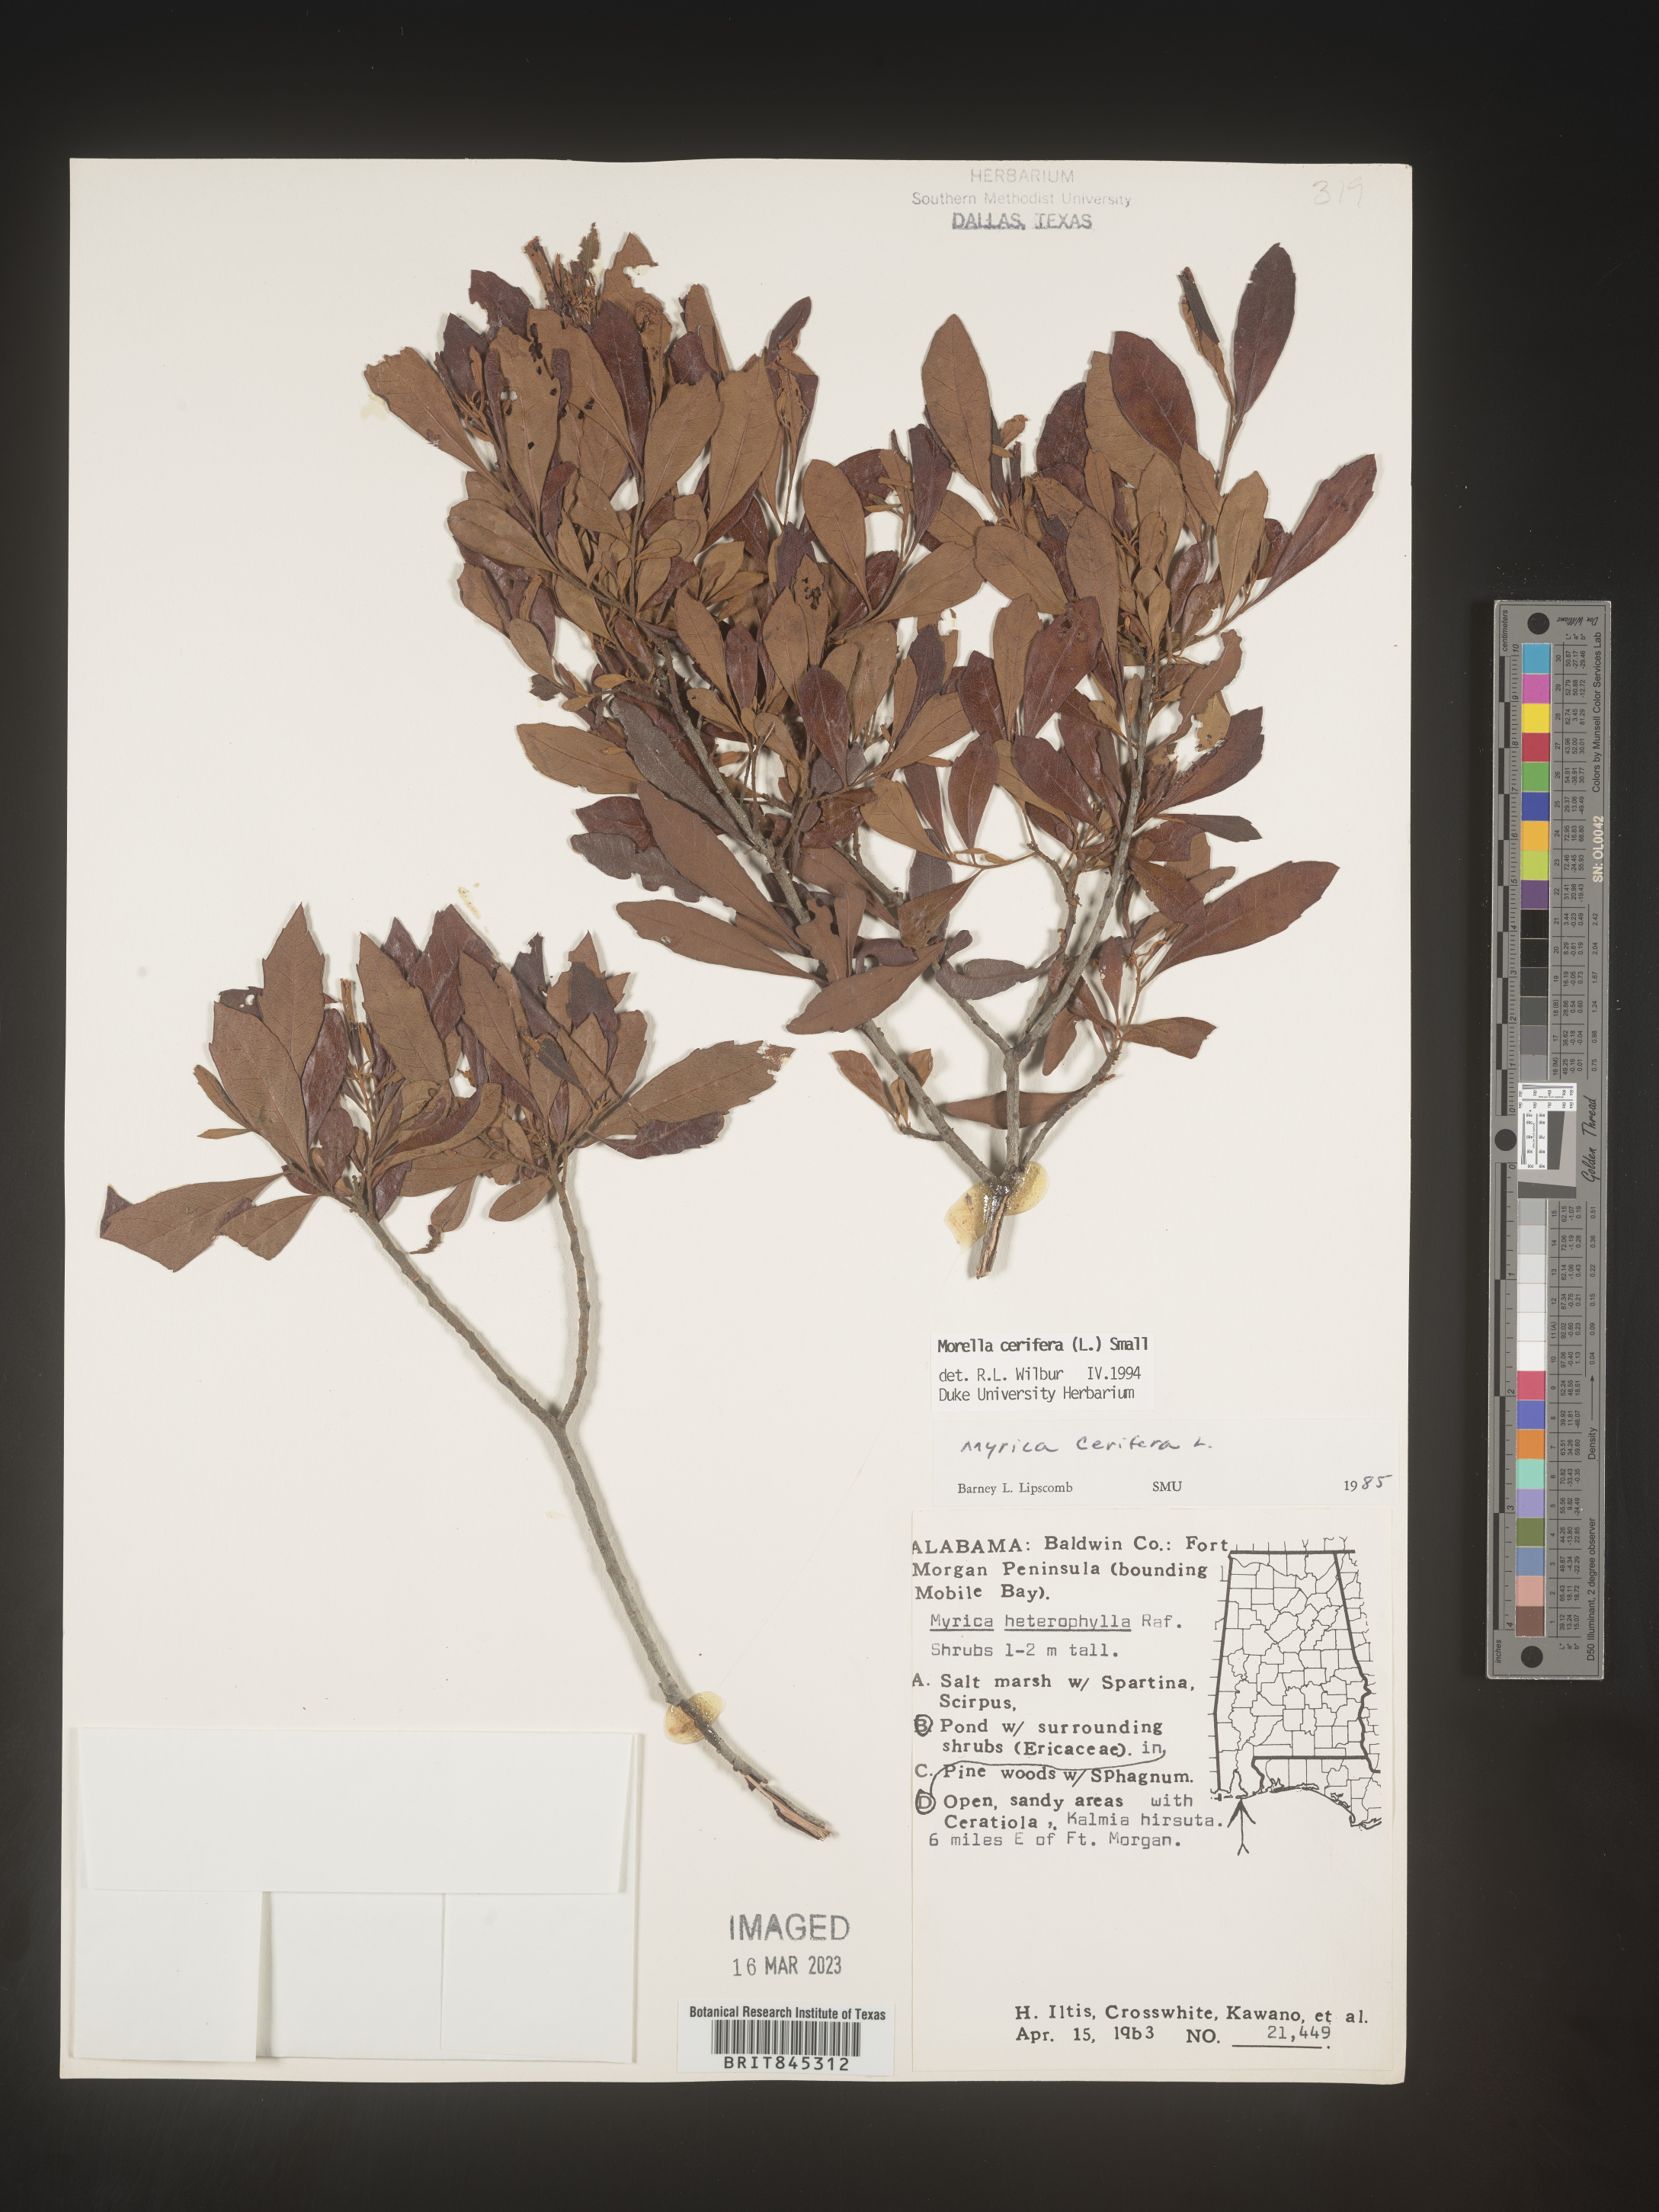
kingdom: Plantae
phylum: Tracheophyta
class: Magnoliopsida
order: Fagales
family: Myricaceae
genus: Morella
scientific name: Morella cerifera
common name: Wax myrtle
